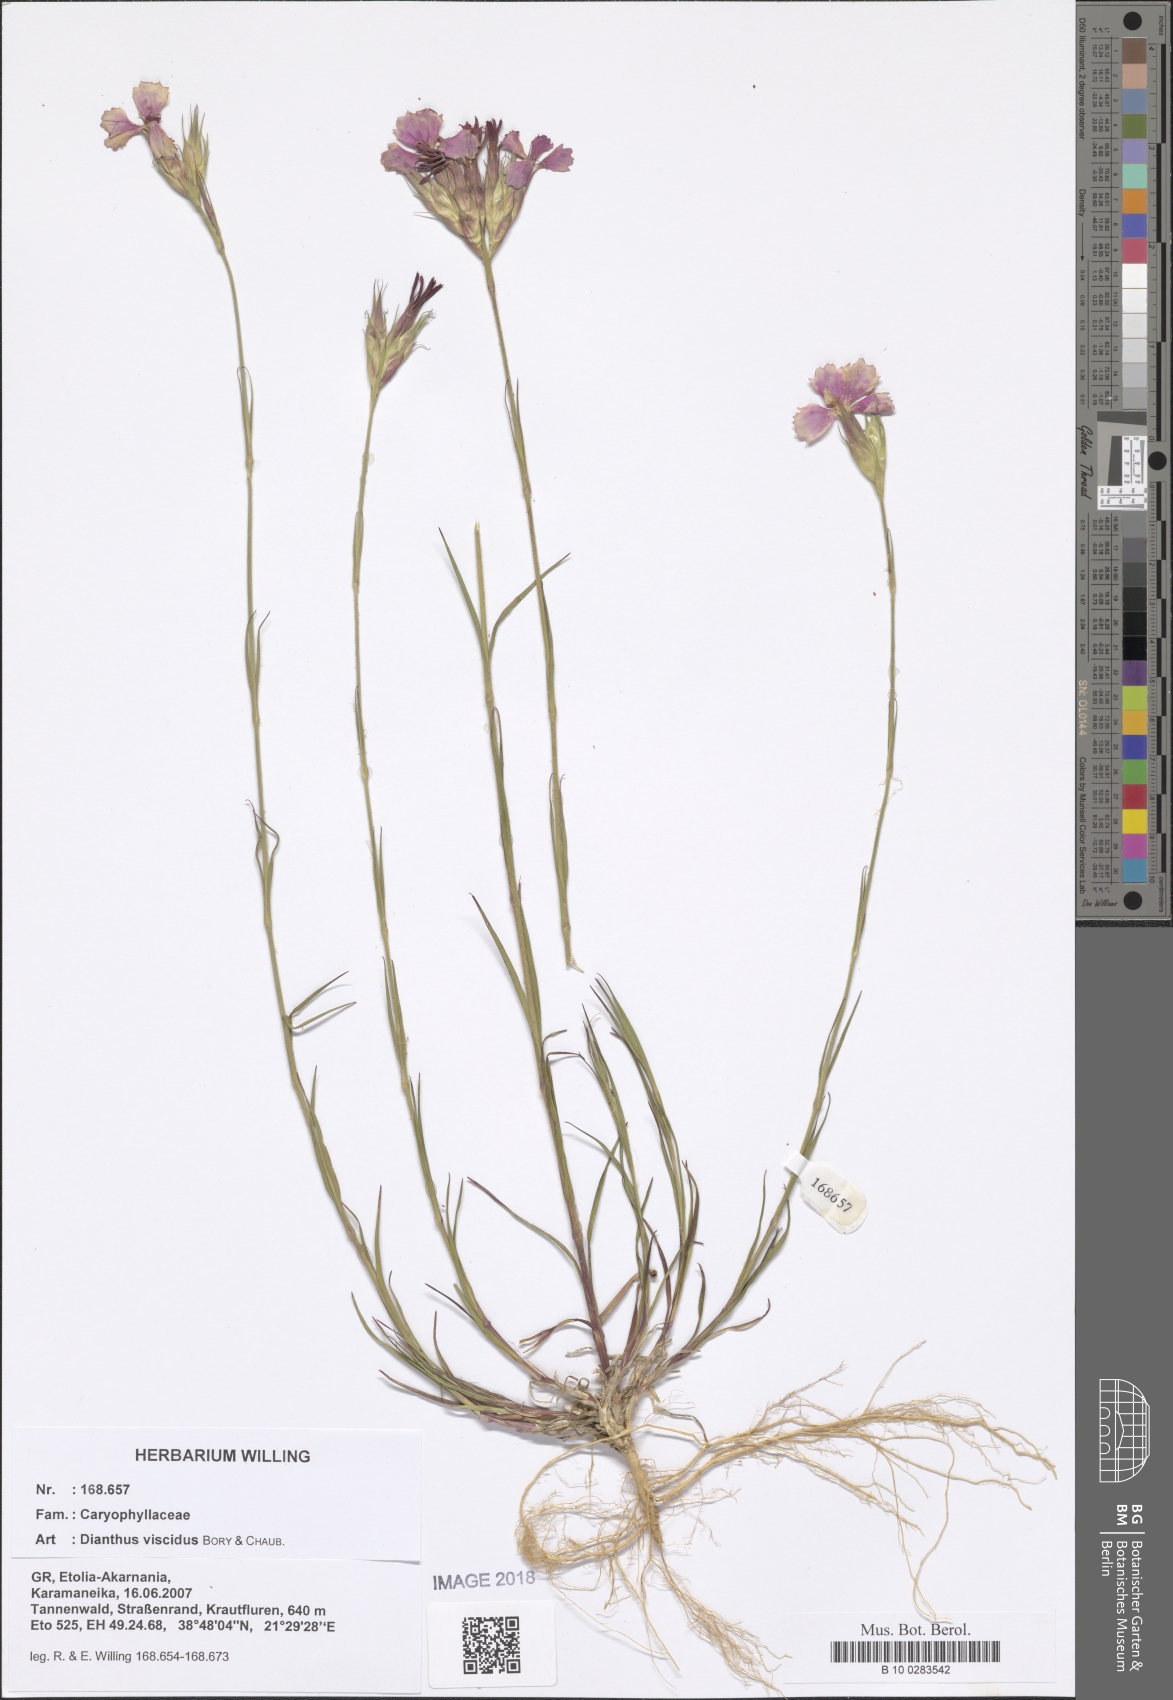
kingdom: Plantae
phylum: Tracheophyta
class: Magnoliopsida
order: Caryophyllales
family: Caryophyllaceae
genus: Dianthus
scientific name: Dianthus viscidus
